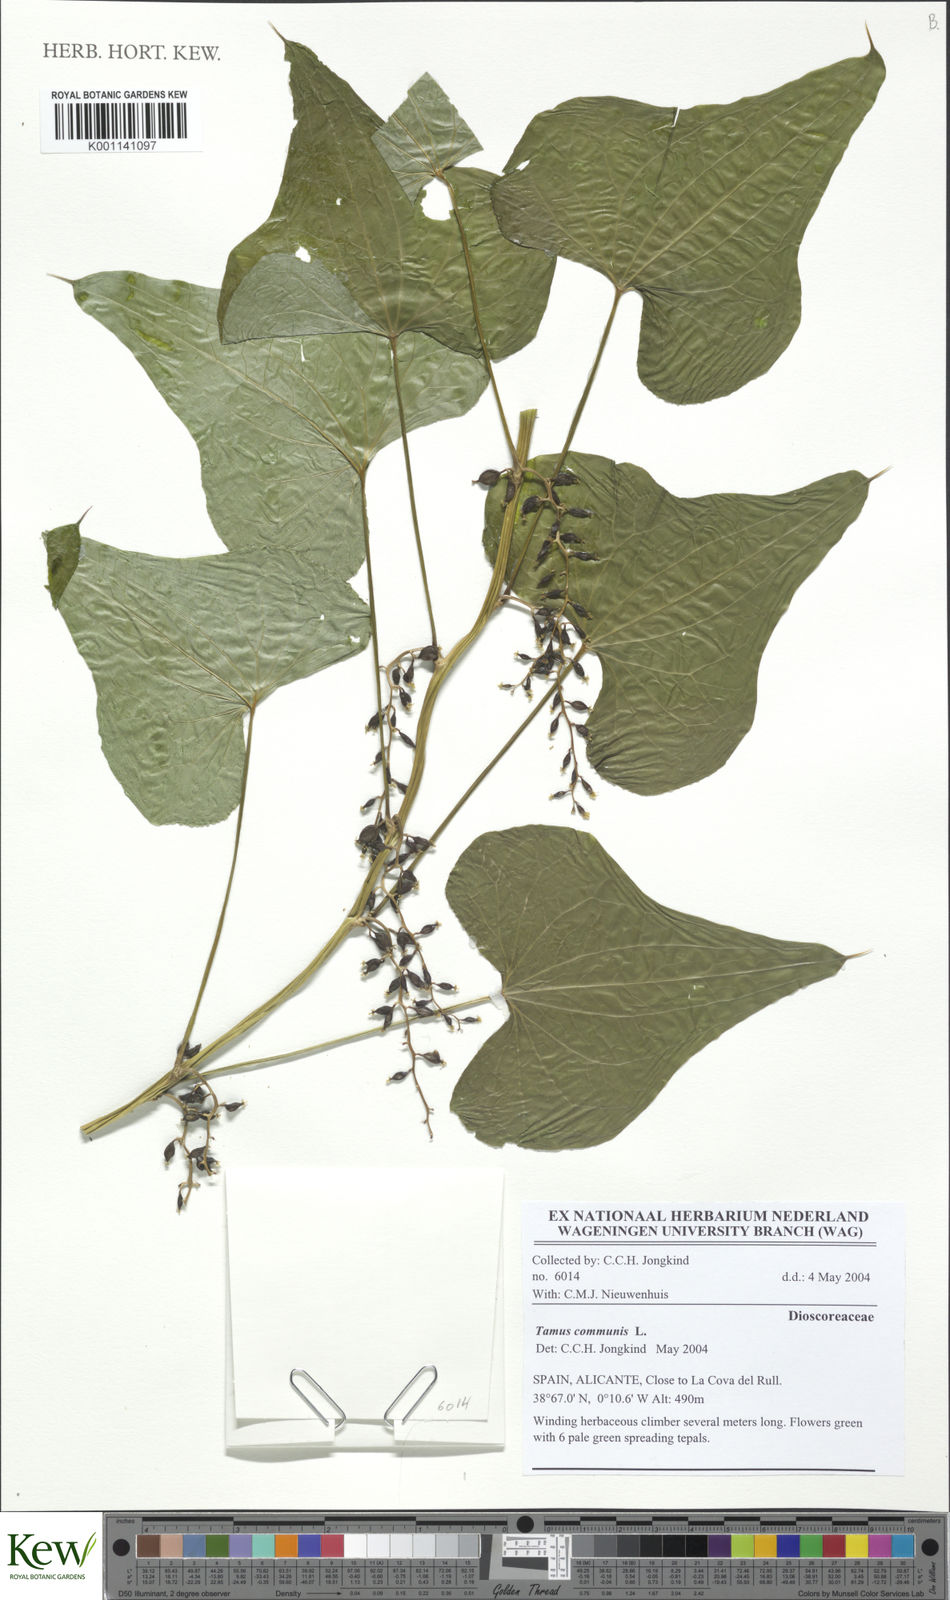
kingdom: Plantae
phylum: Tracheophyta
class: Liliopsida
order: Dioscoreales
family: Dioscoreaceae
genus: Dioscorea
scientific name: Dioscorea communis
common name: Black-bindweed
